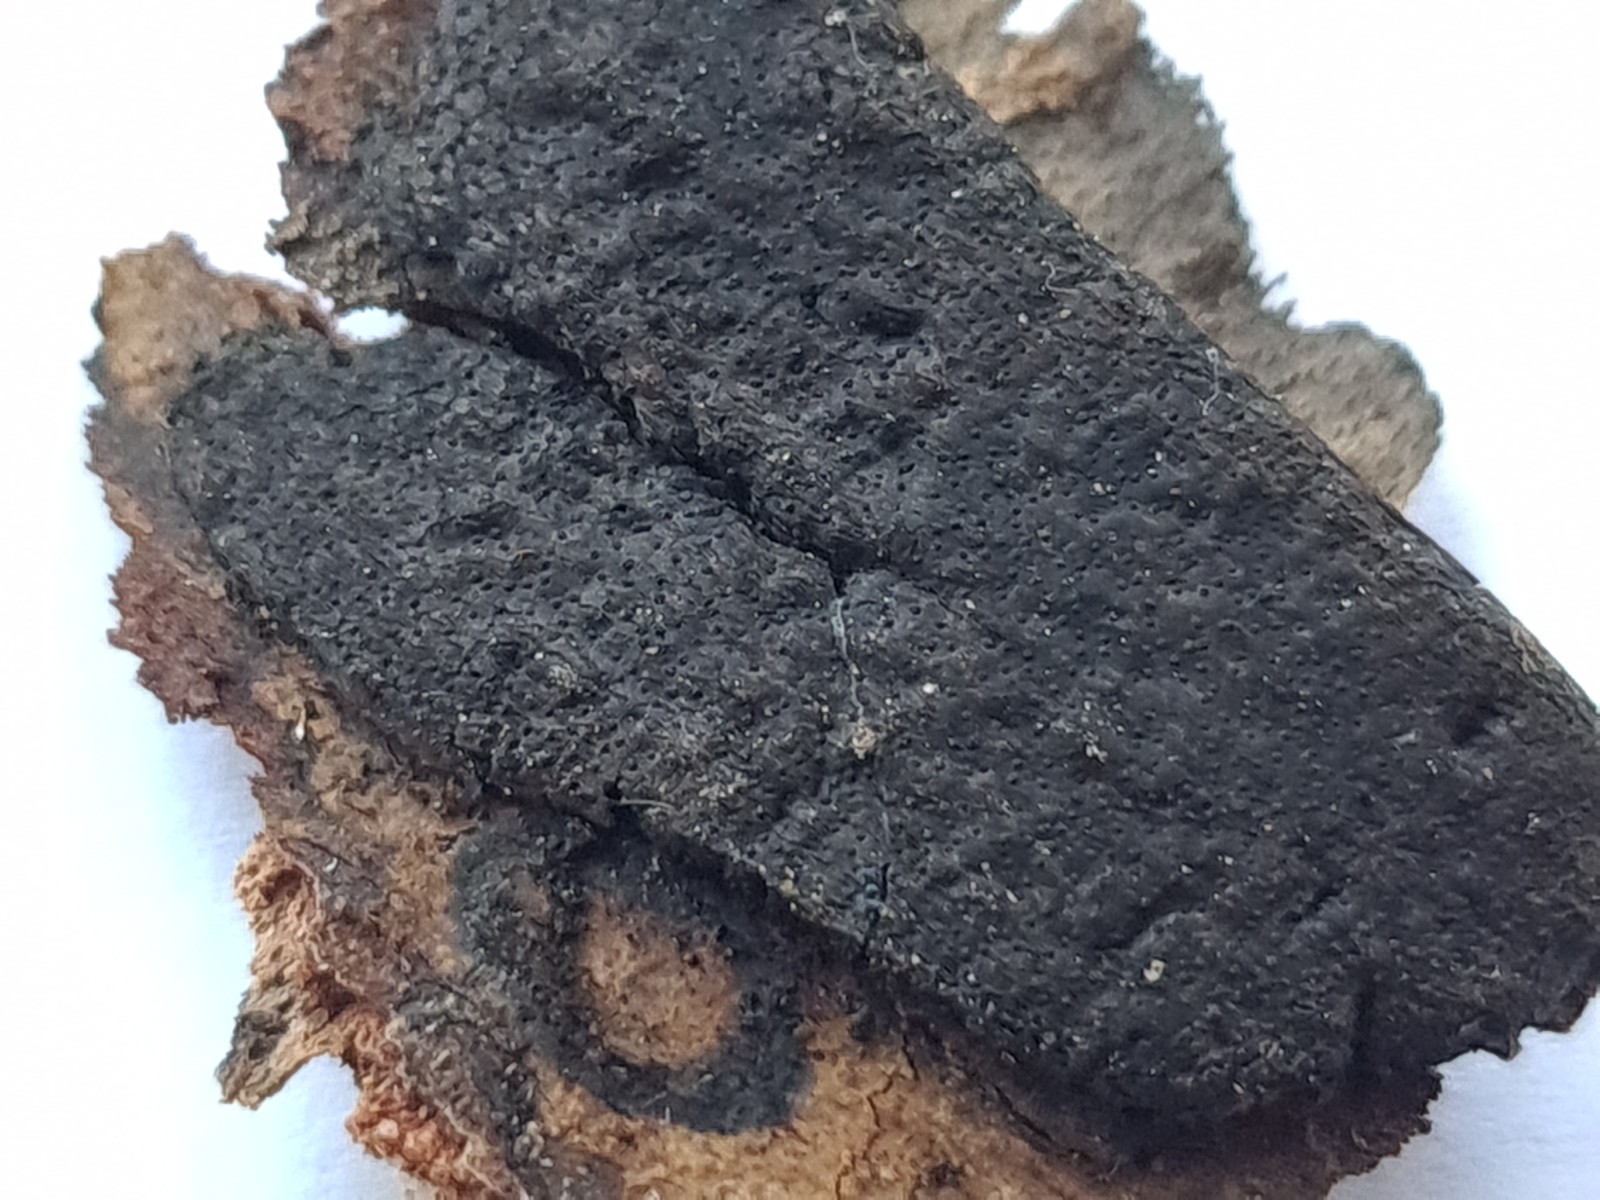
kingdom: Fungi
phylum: Ascomycota
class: Sordariomycetes
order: Xylariales
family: Diatrypaceae
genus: Diatrype
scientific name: Diatrype
